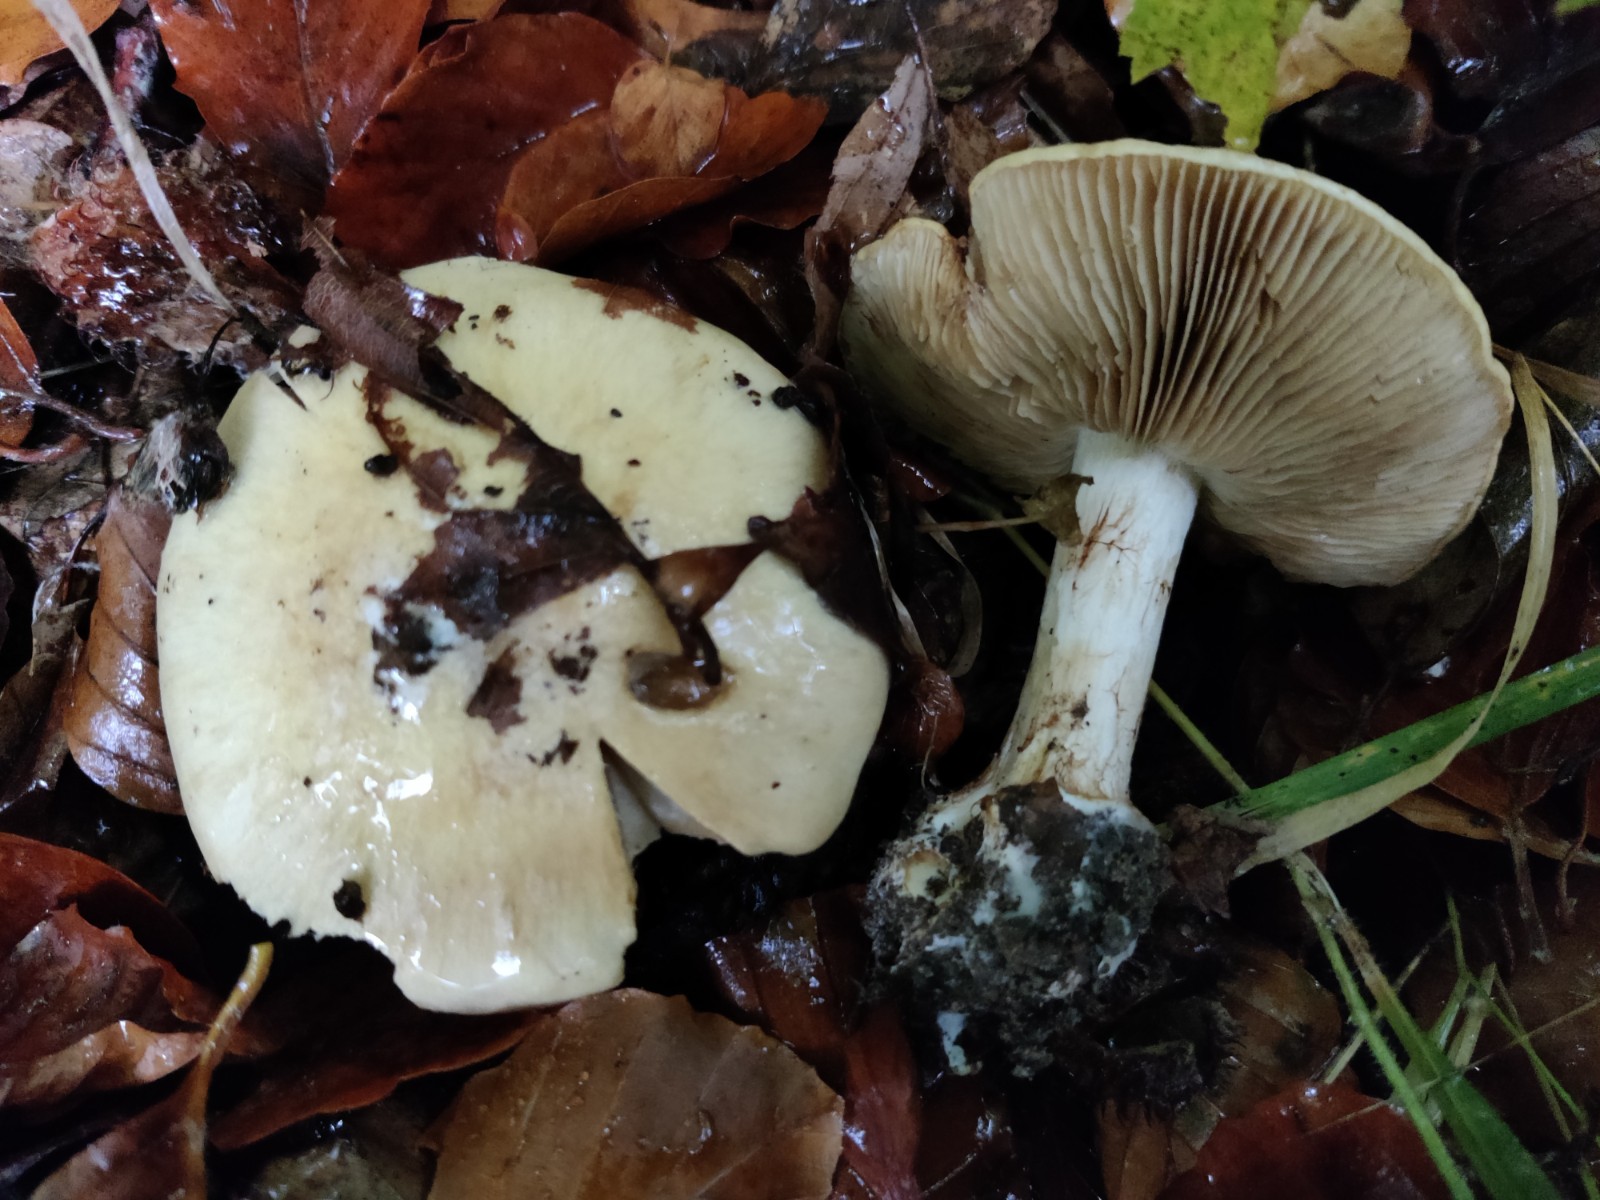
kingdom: Fungi
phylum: Basidiomycota
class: Agaricomycetes
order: Agaricales
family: Cortinariaceae
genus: Phlegmacium
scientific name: Phlegmacium xantho-ochraceum
